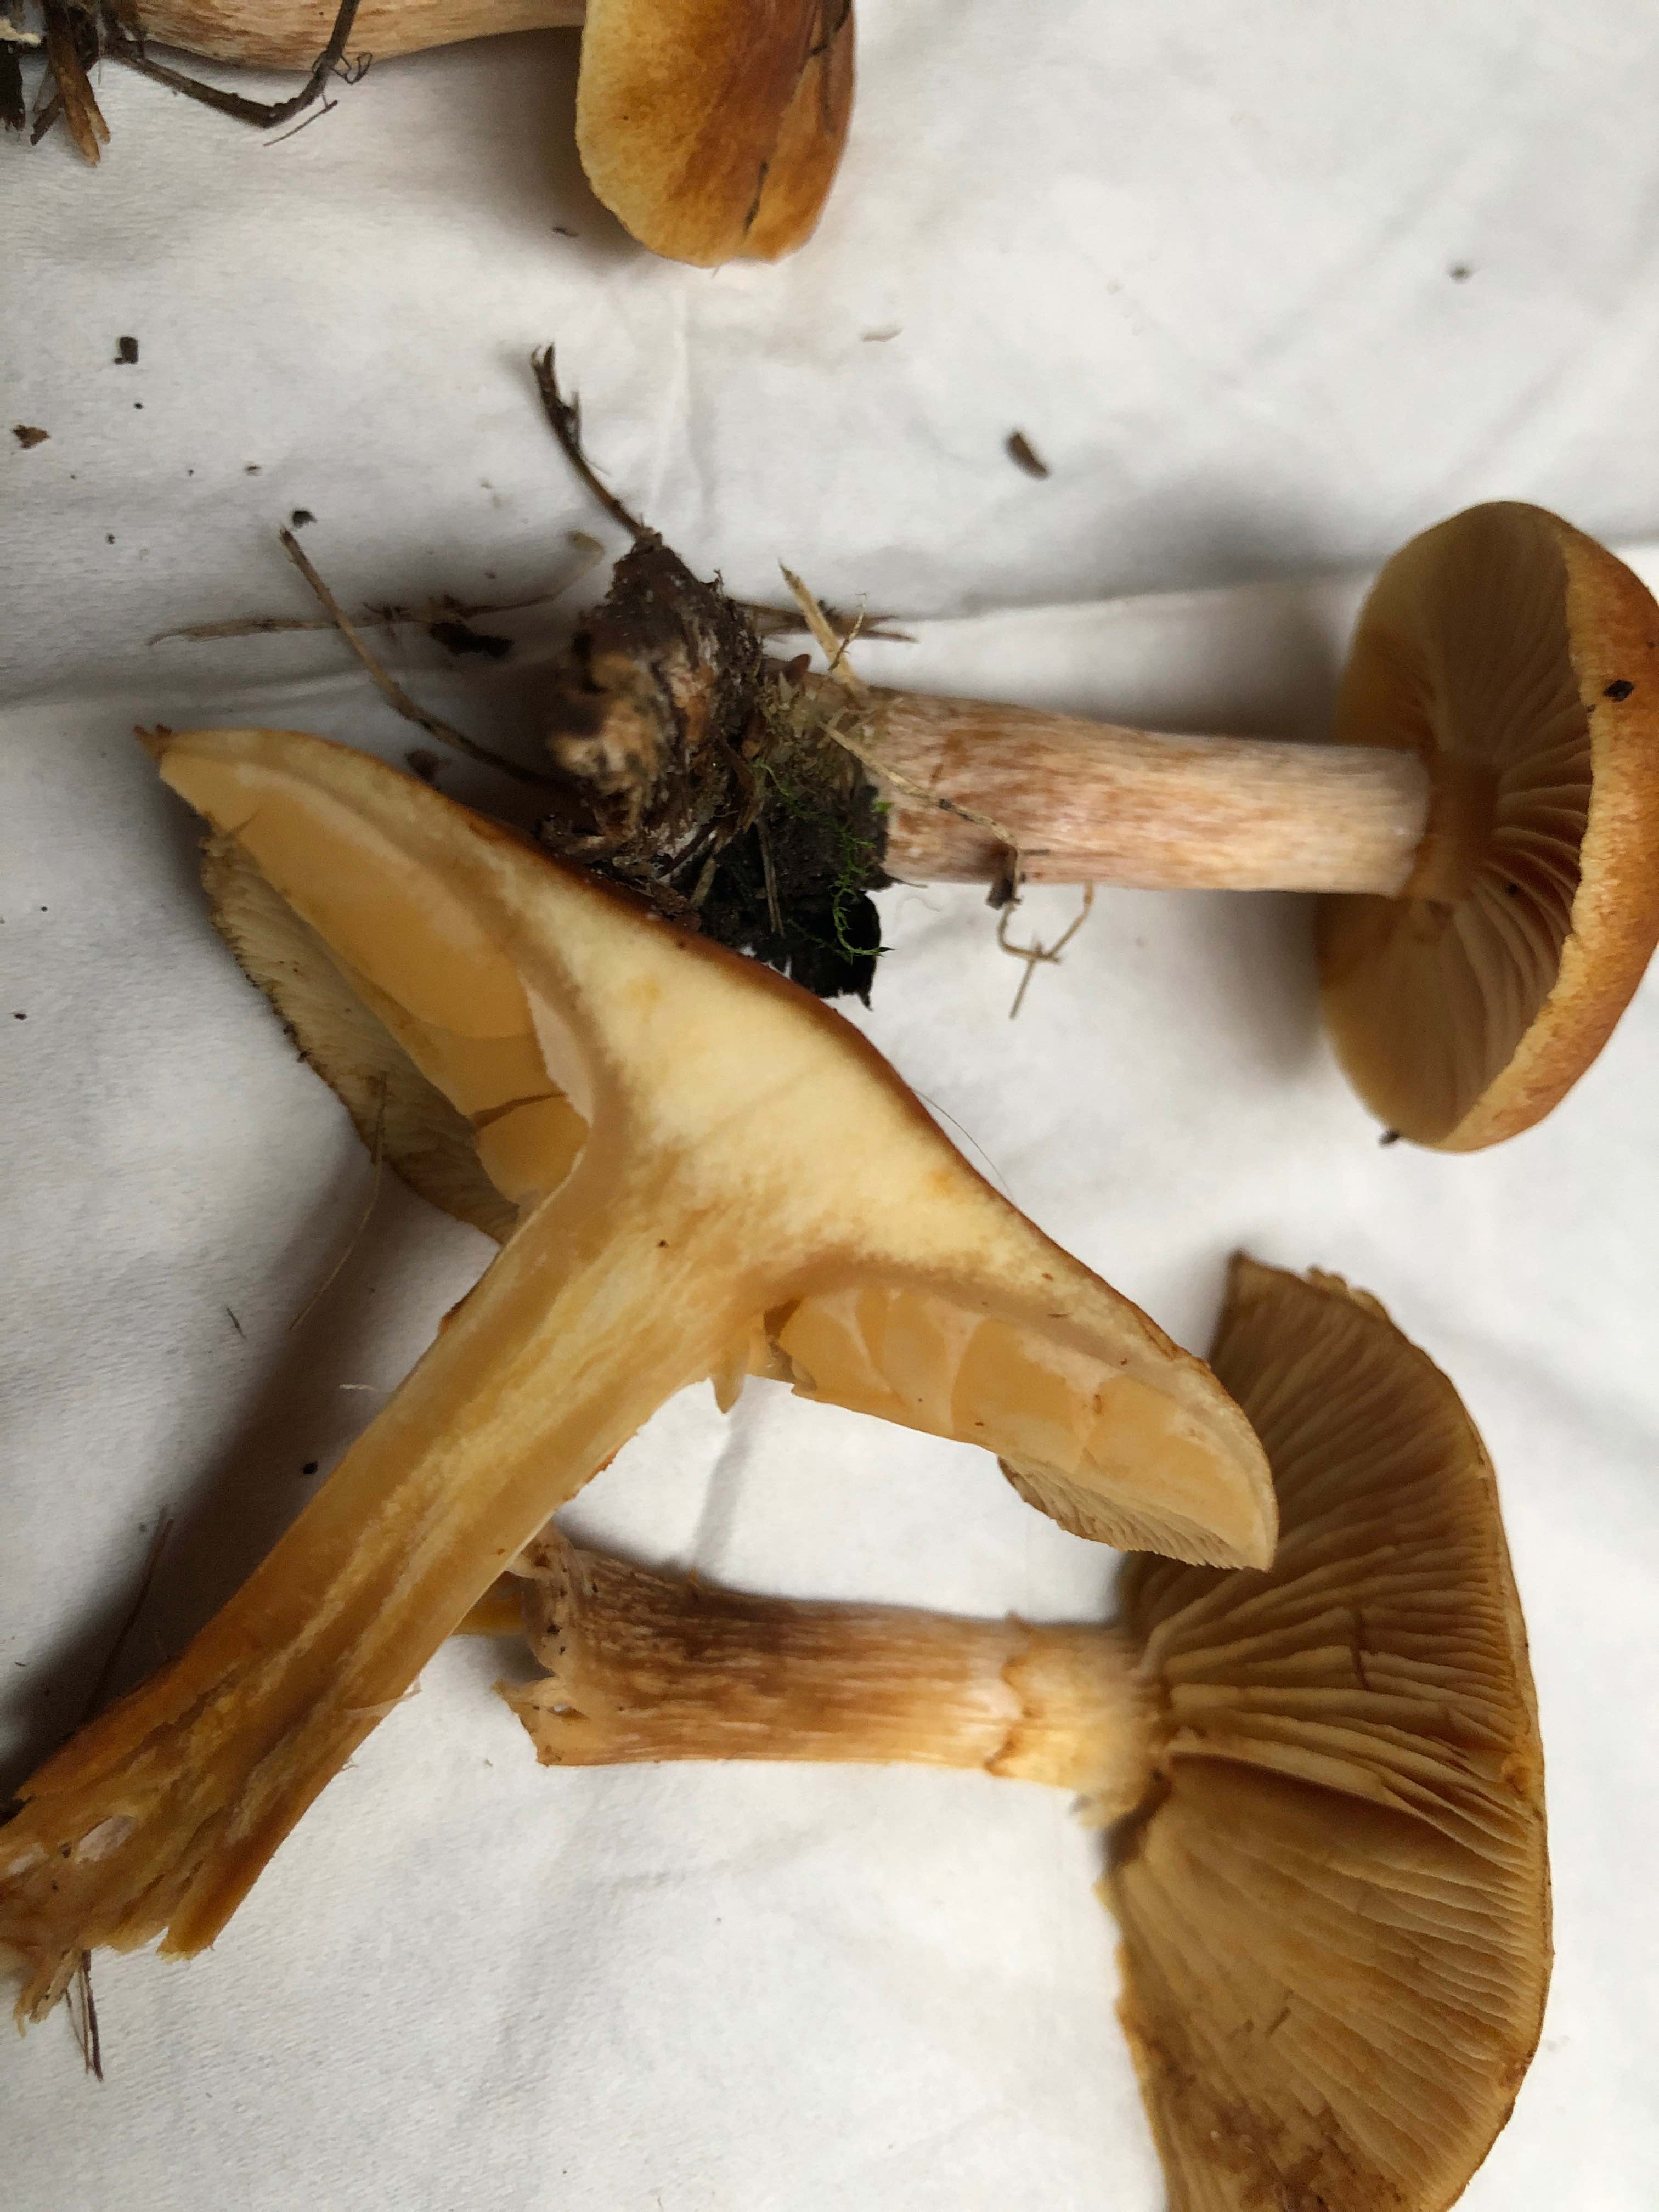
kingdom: Fungi
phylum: Basidiomycota
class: Agaricomycetes
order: Agaricales
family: Hymenogastraceae
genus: Gymnopilus
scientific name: Gymnopilus penetrans
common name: plettet flammehat
